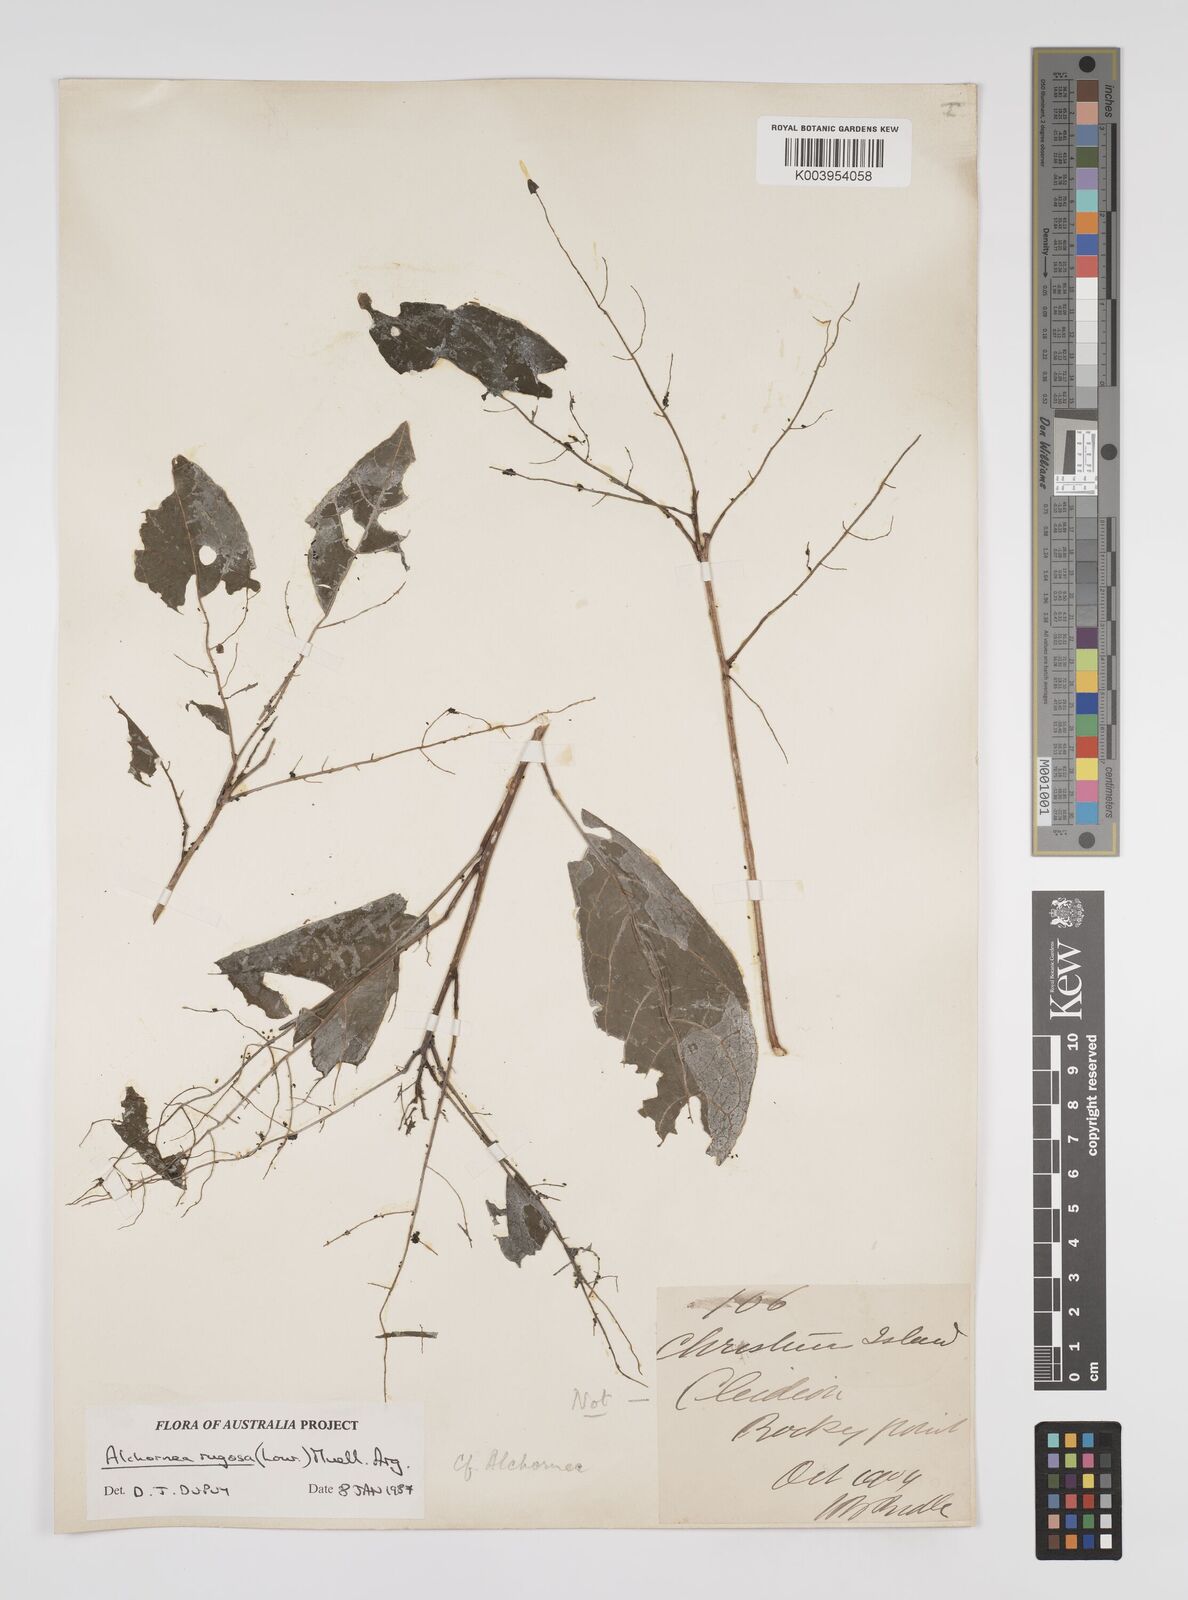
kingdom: Plantae
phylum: Tracheophyta
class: Magnoliopsida
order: Malpighiales
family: Euphorbiaceae
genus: Alchornea
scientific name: Alchornea rugosa
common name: Alchorntree
